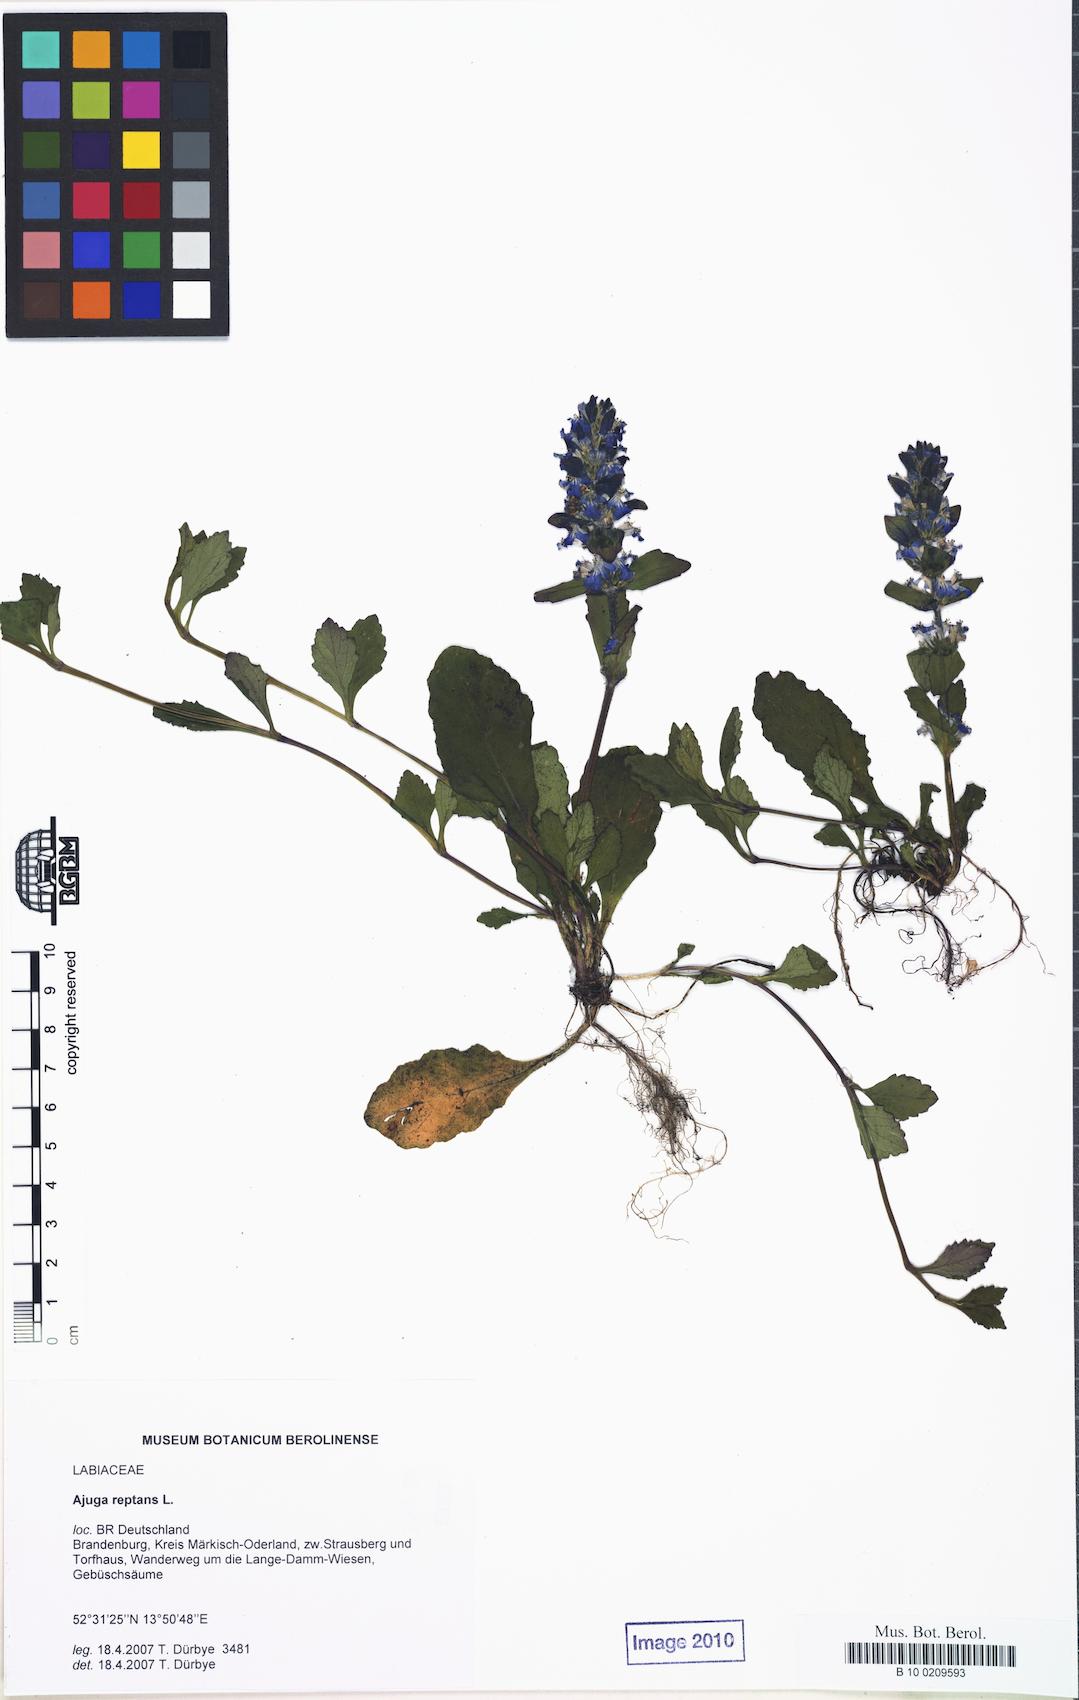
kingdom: Plantae
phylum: Tracheophyta
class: Magnoliopsida
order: Lamiales
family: Lamiaceae
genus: Ajuga
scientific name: Ajuga reptans
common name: Bugle
